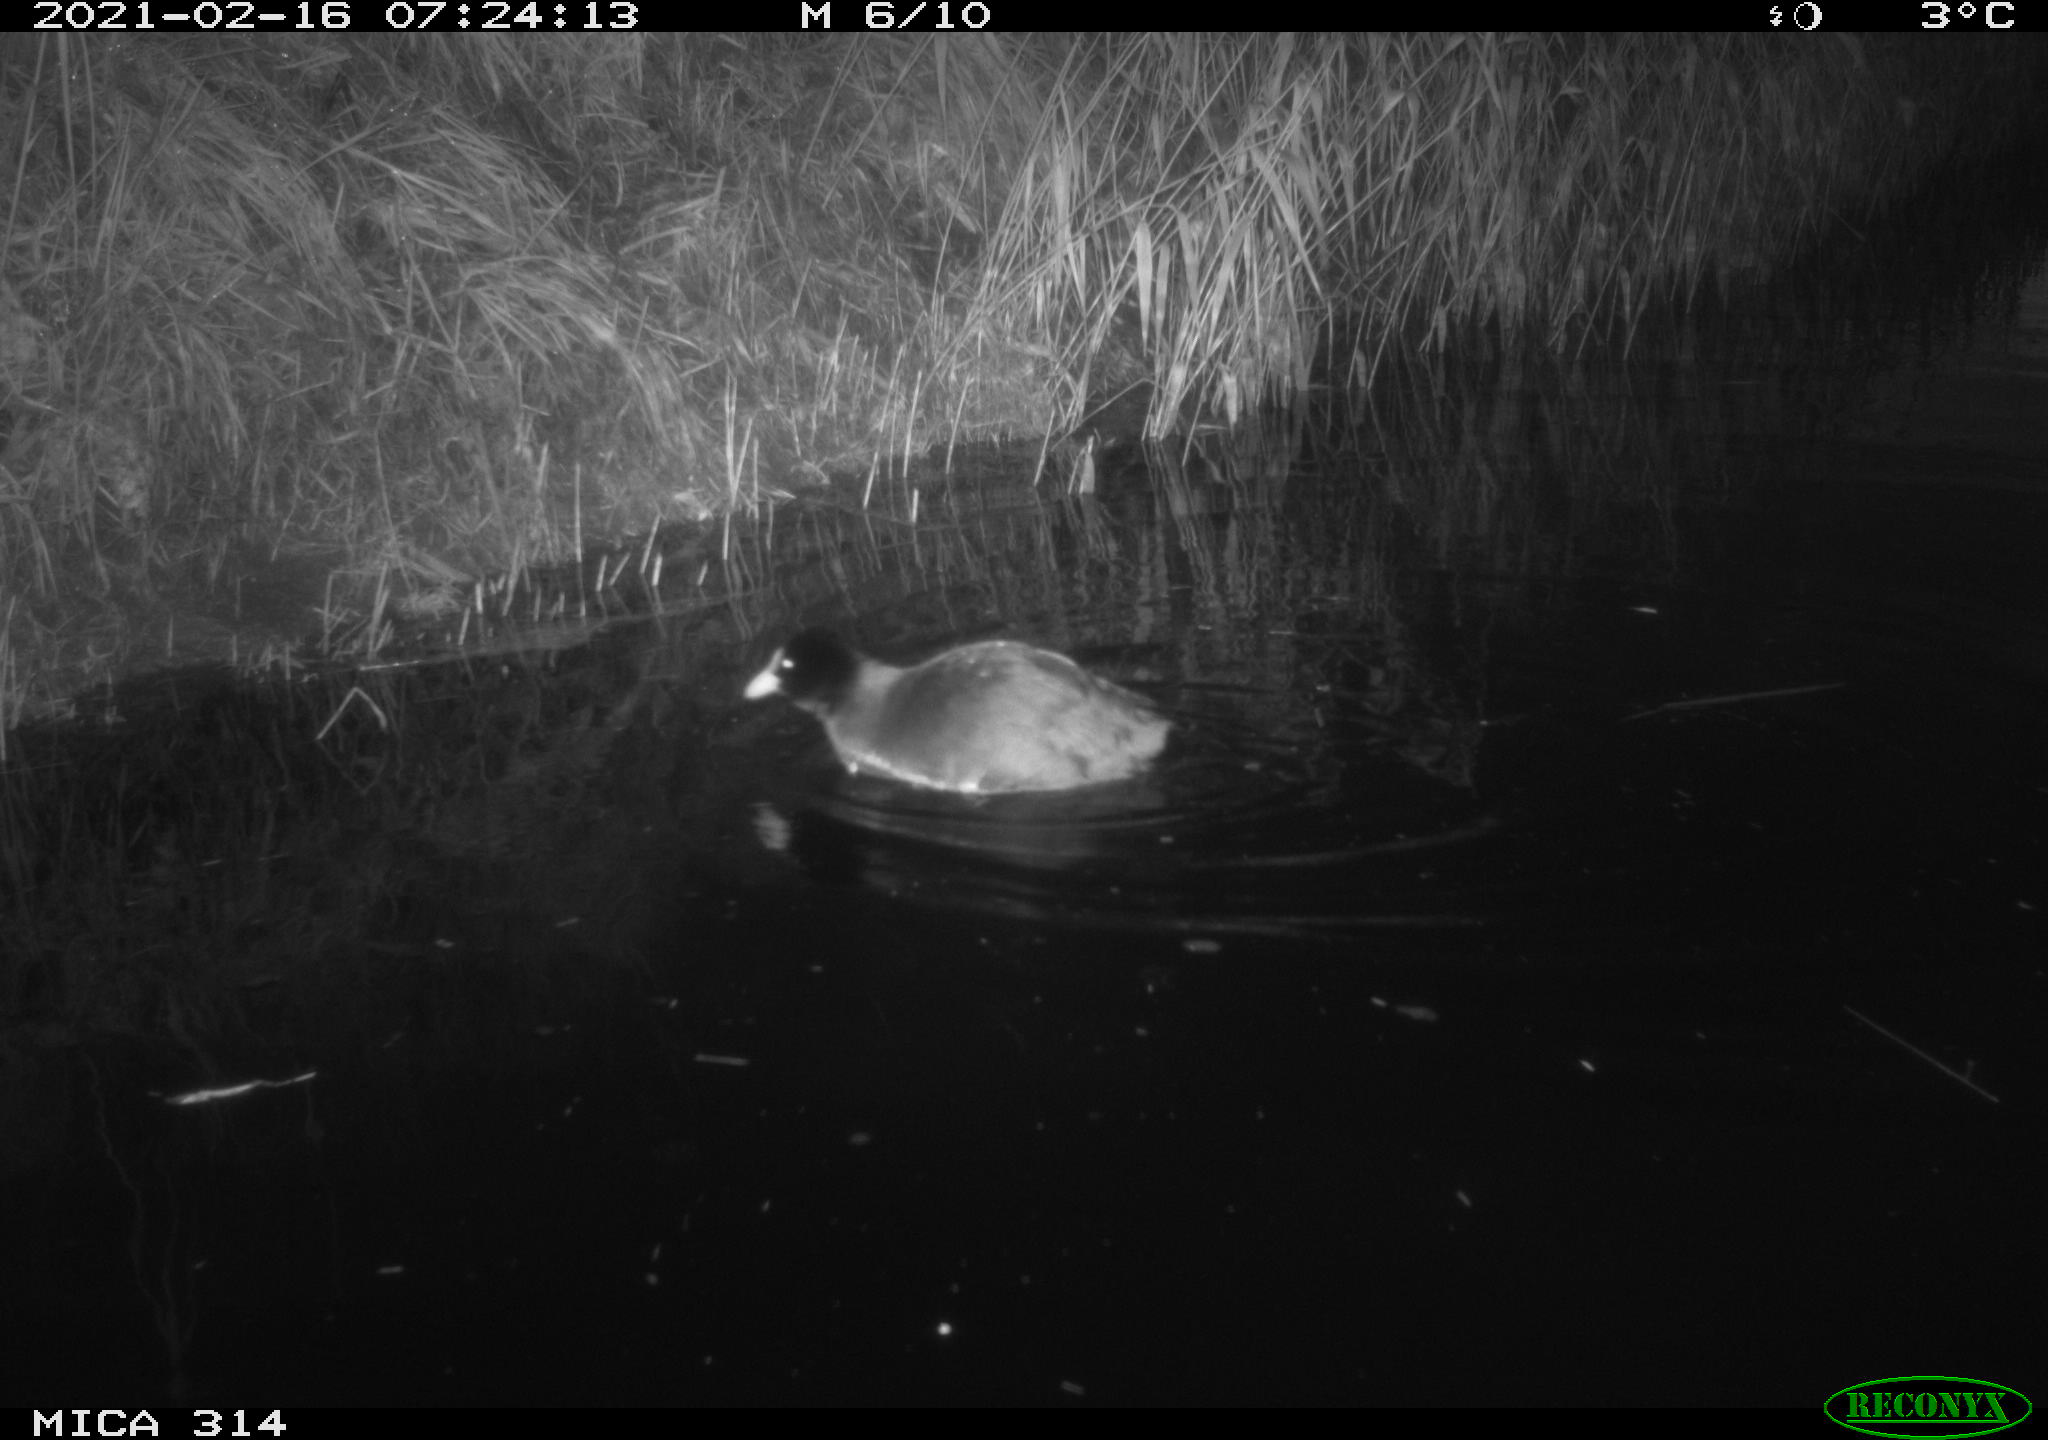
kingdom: Animalia
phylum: Chordata
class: Aves
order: Gruiformes
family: Rallidae
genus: Fulica
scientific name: Fulica atra
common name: Eurasian coot
